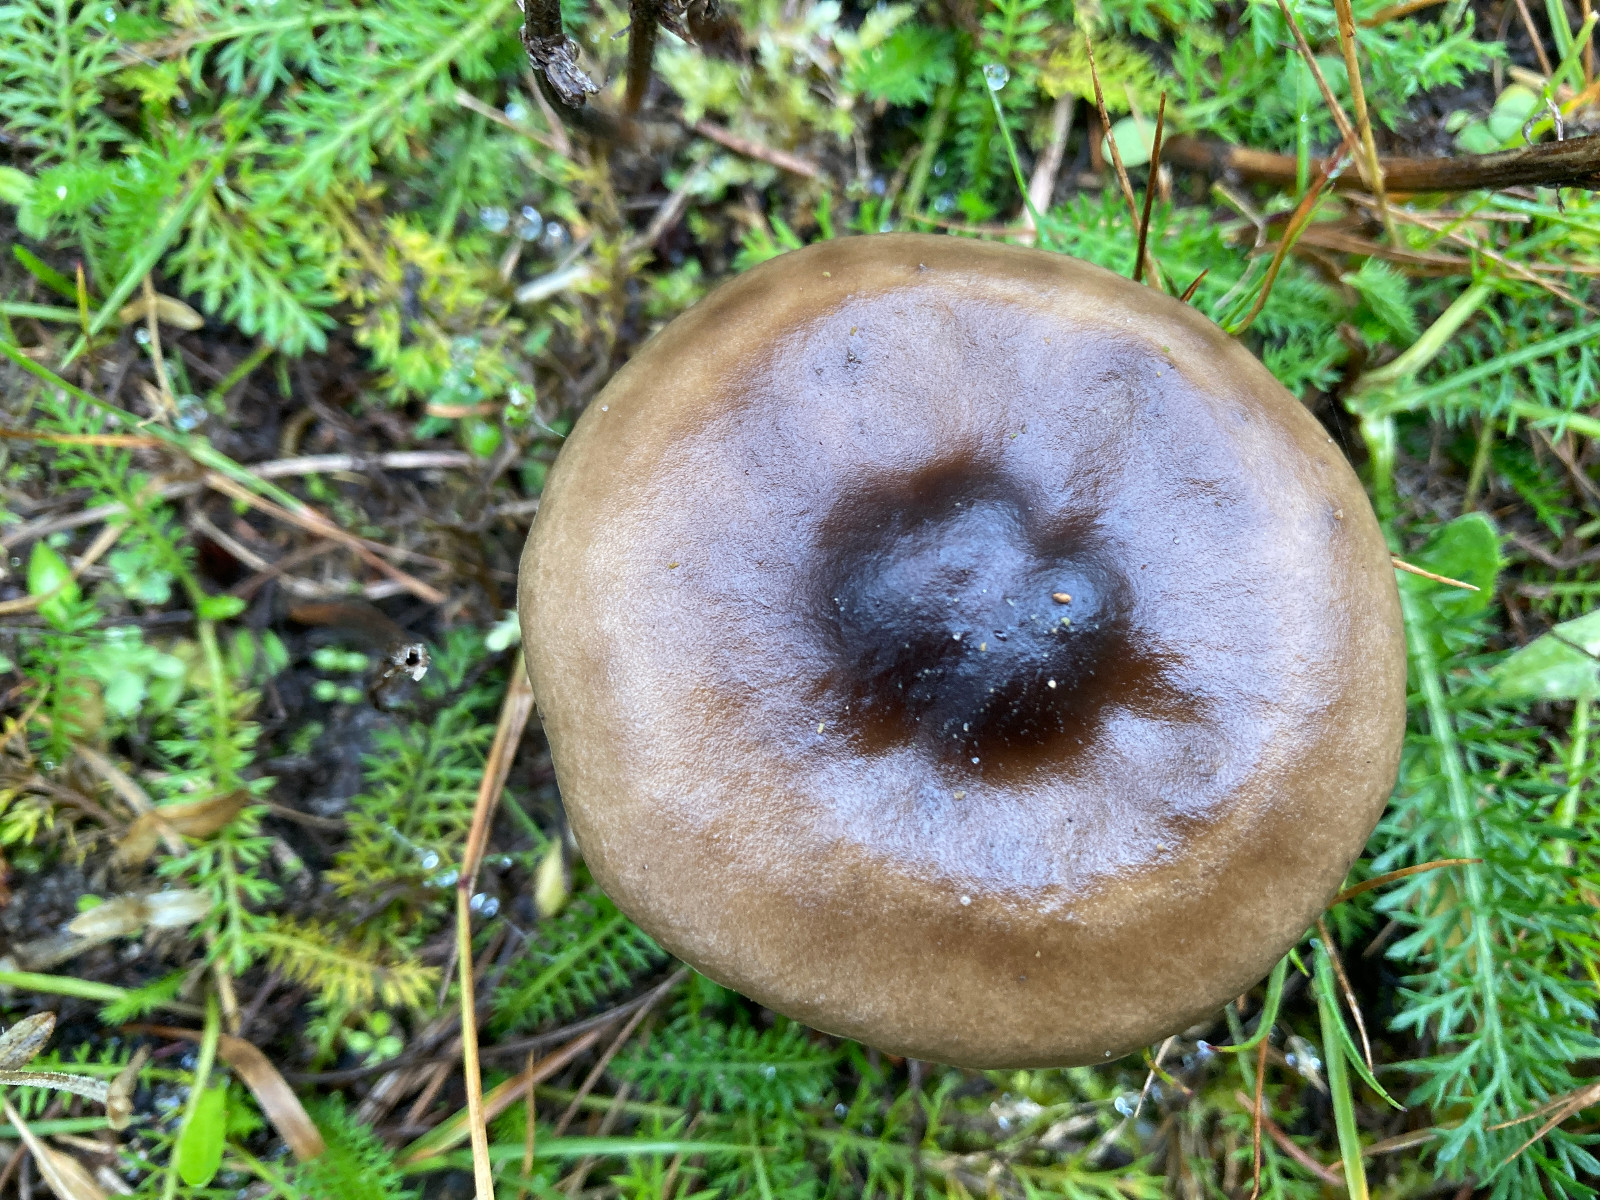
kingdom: Fungi
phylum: Basidiomycota
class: Agaricomycetes
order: Agaricales
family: Tricholomataceae
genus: Melanoleuca
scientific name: Melanoleuca
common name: munkehat
